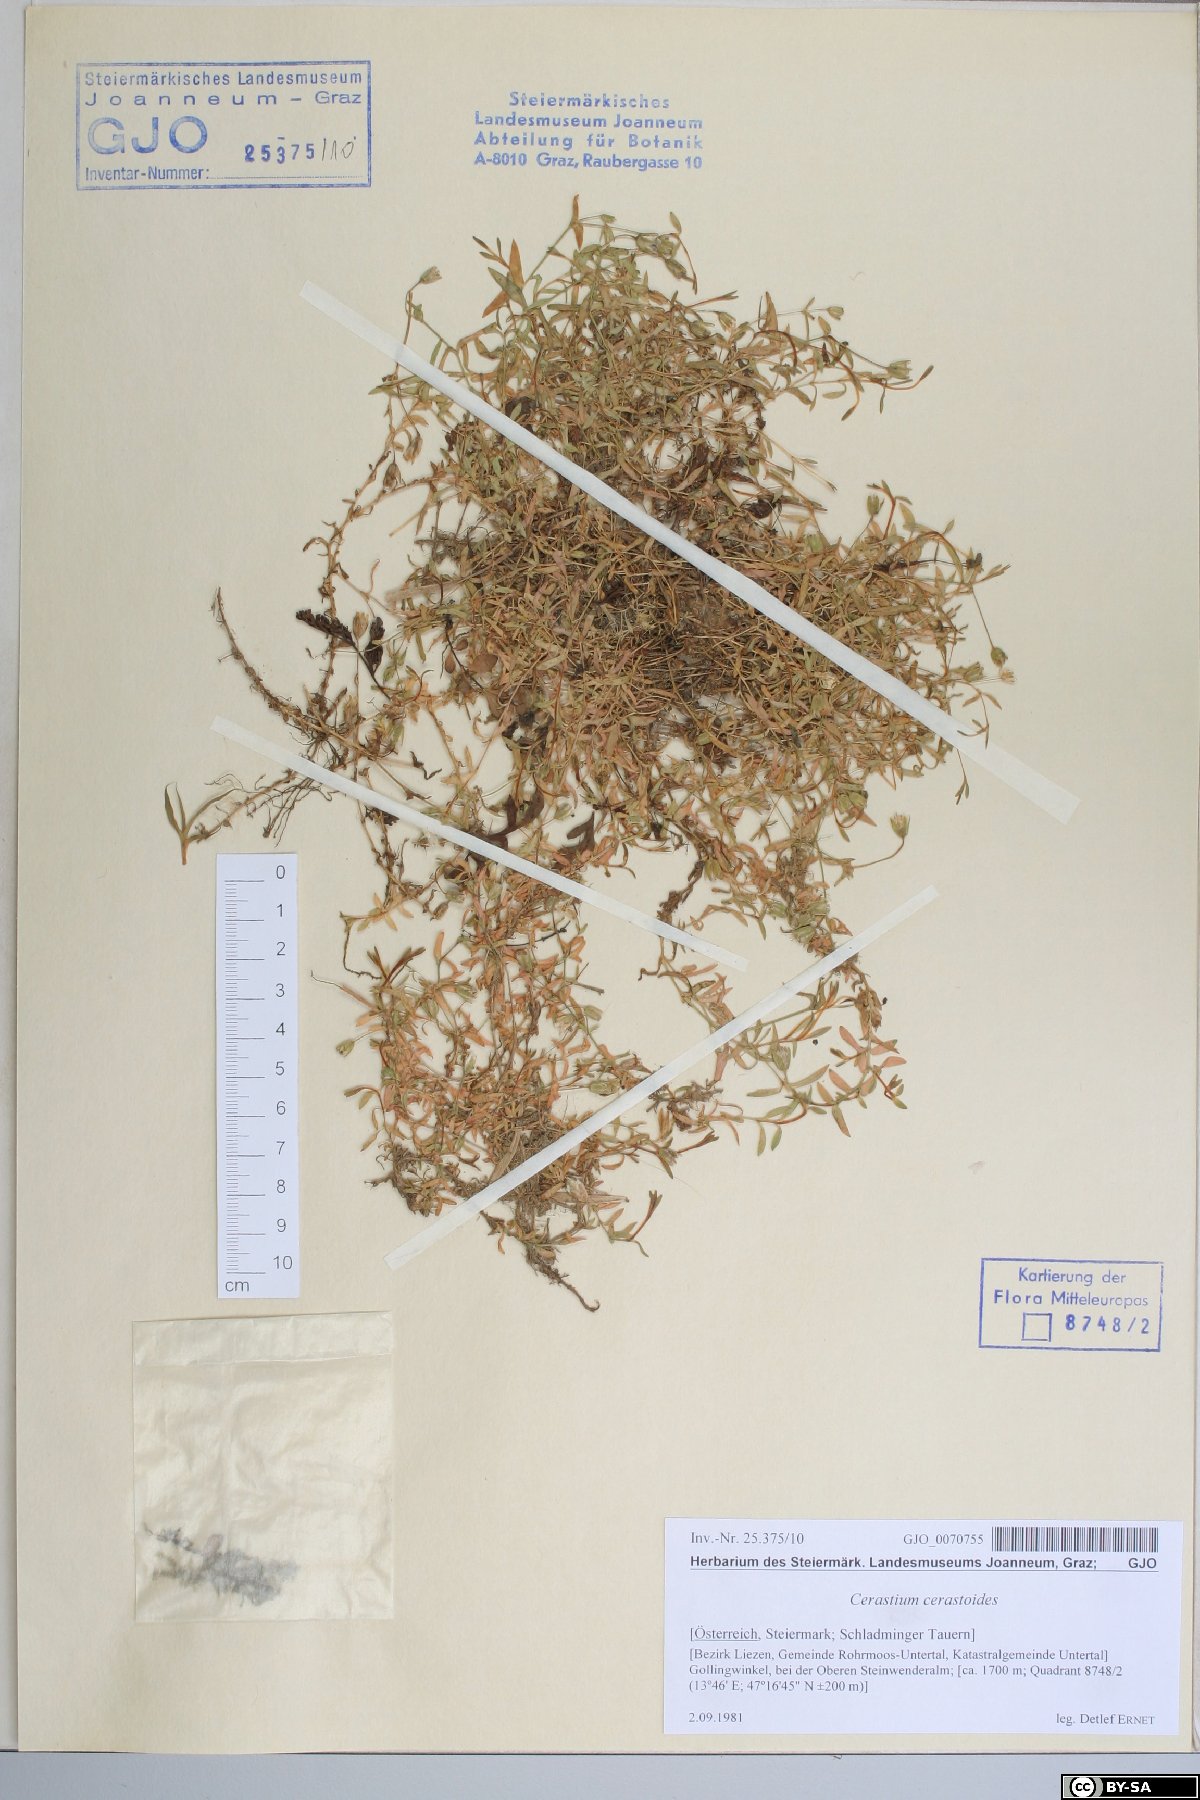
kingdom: Plantae
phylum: Tracheophyta
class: Magnoliopsida
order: Caryophyllales
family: Caryophyllaceae
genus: Dichodon
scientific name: Dichodon cerastoides
